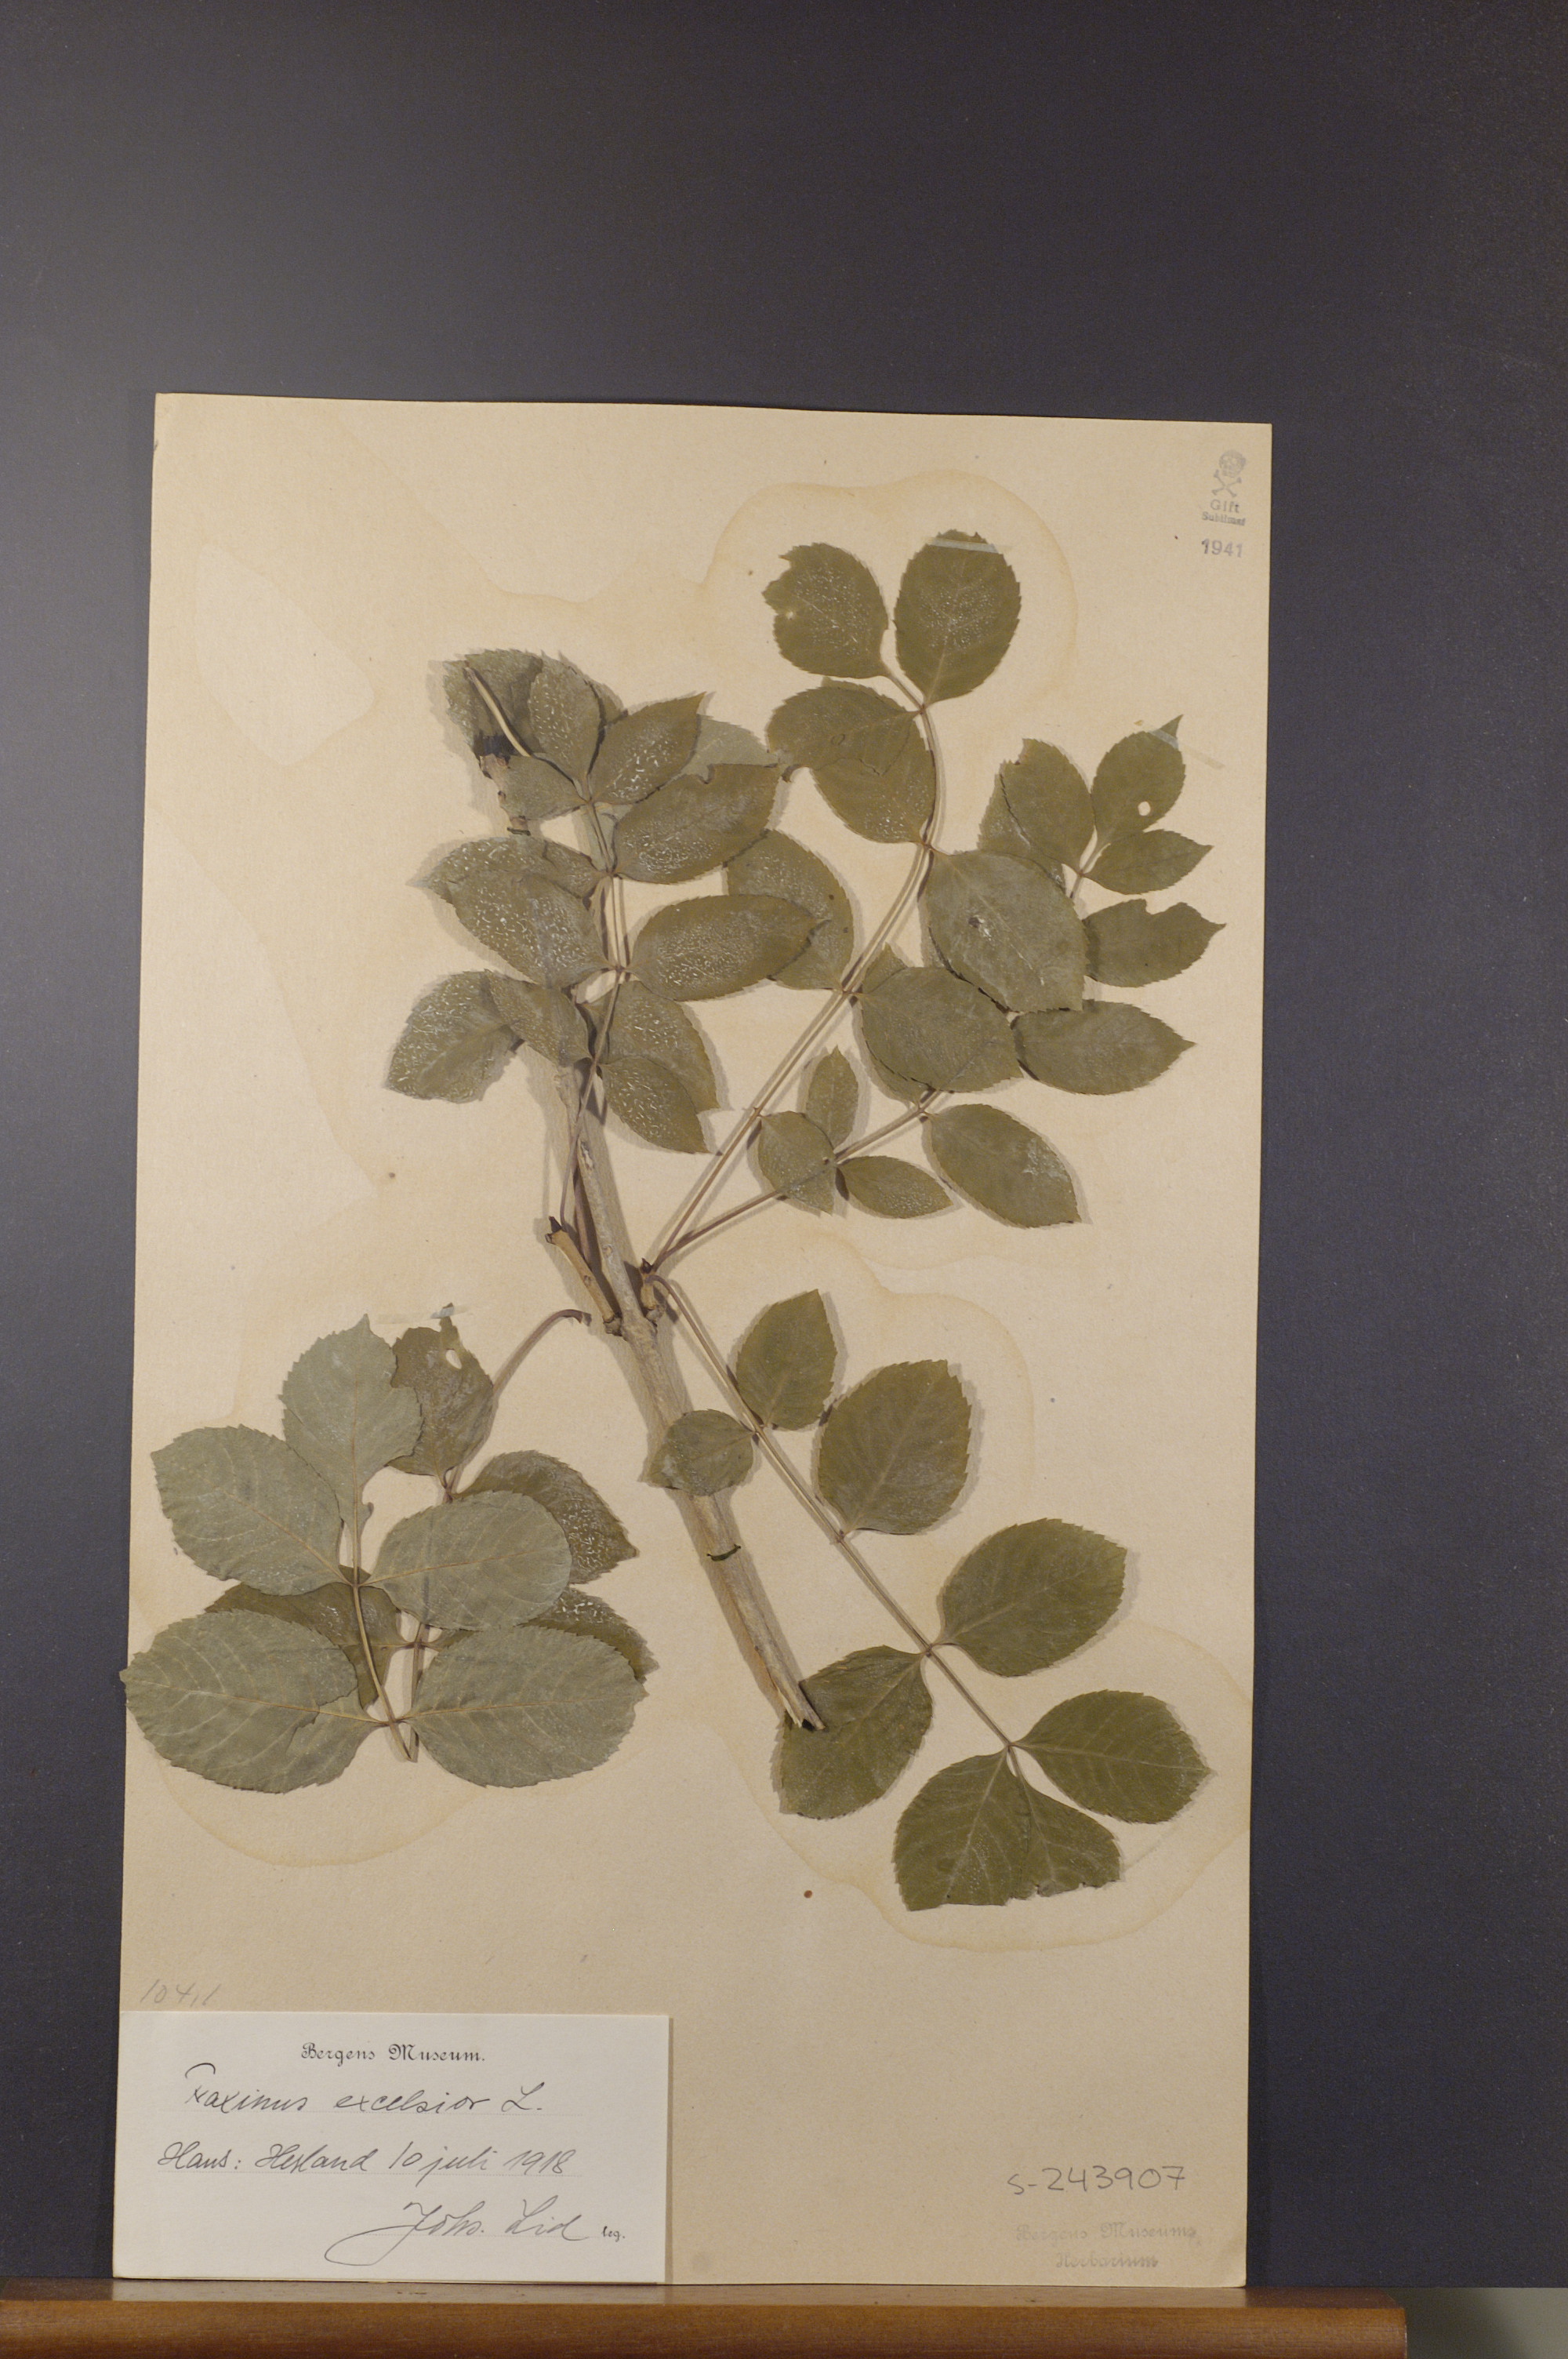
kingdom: Plantae
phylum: Tracheophyta
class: Magnoliopsida
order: Lamiales
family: Oleaceae
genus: Fraxinus
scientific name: Fraxinus excelsior
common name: European ash
